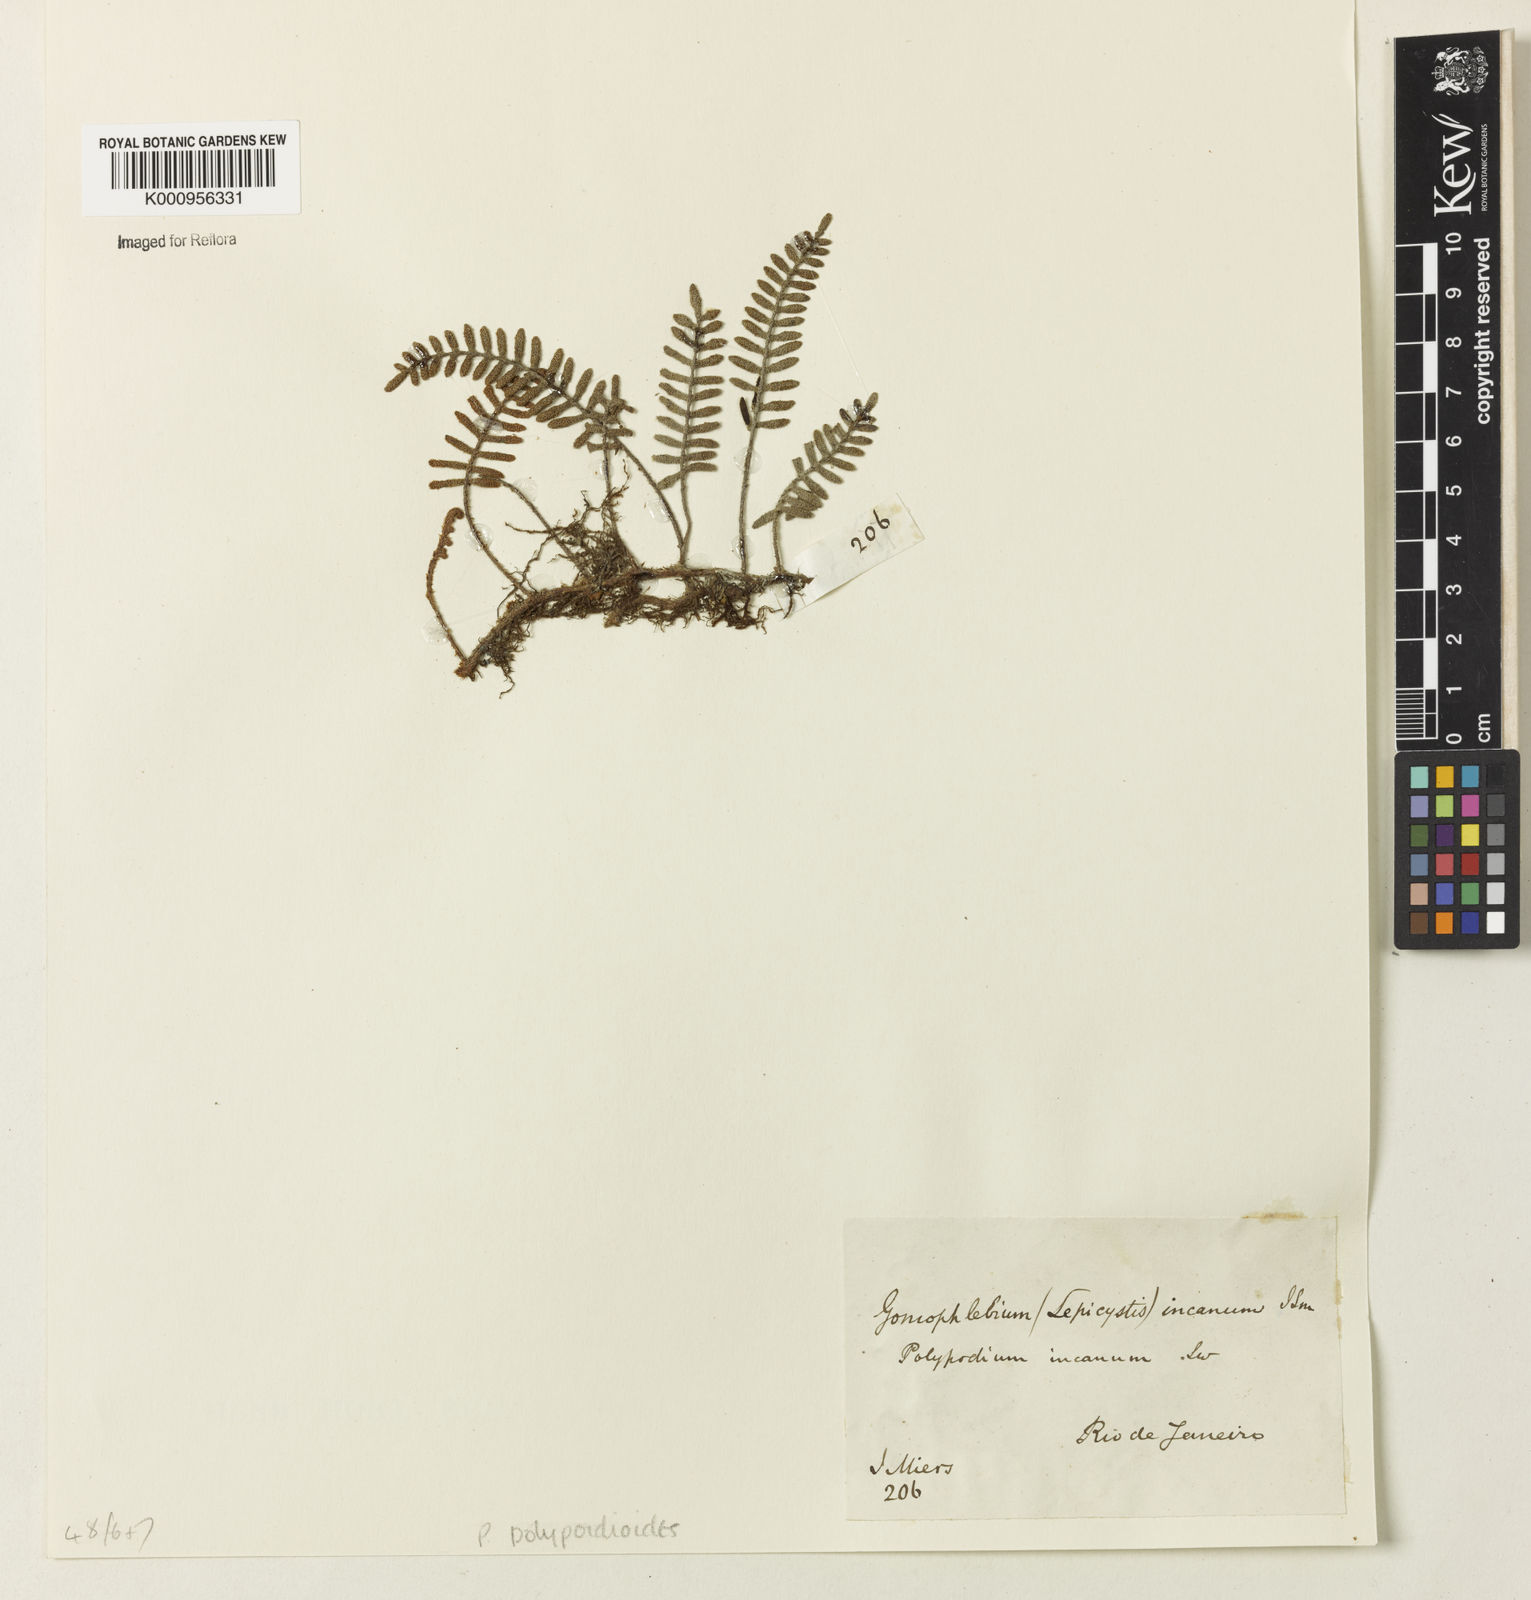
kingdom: Plantae
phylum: Tracheophyta
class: Polypodiopsida
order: Polypodiales
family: Polypodiaceae
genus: Pleopeltis
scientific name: Pleopeltis polypodioides
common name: Resurrection fern
